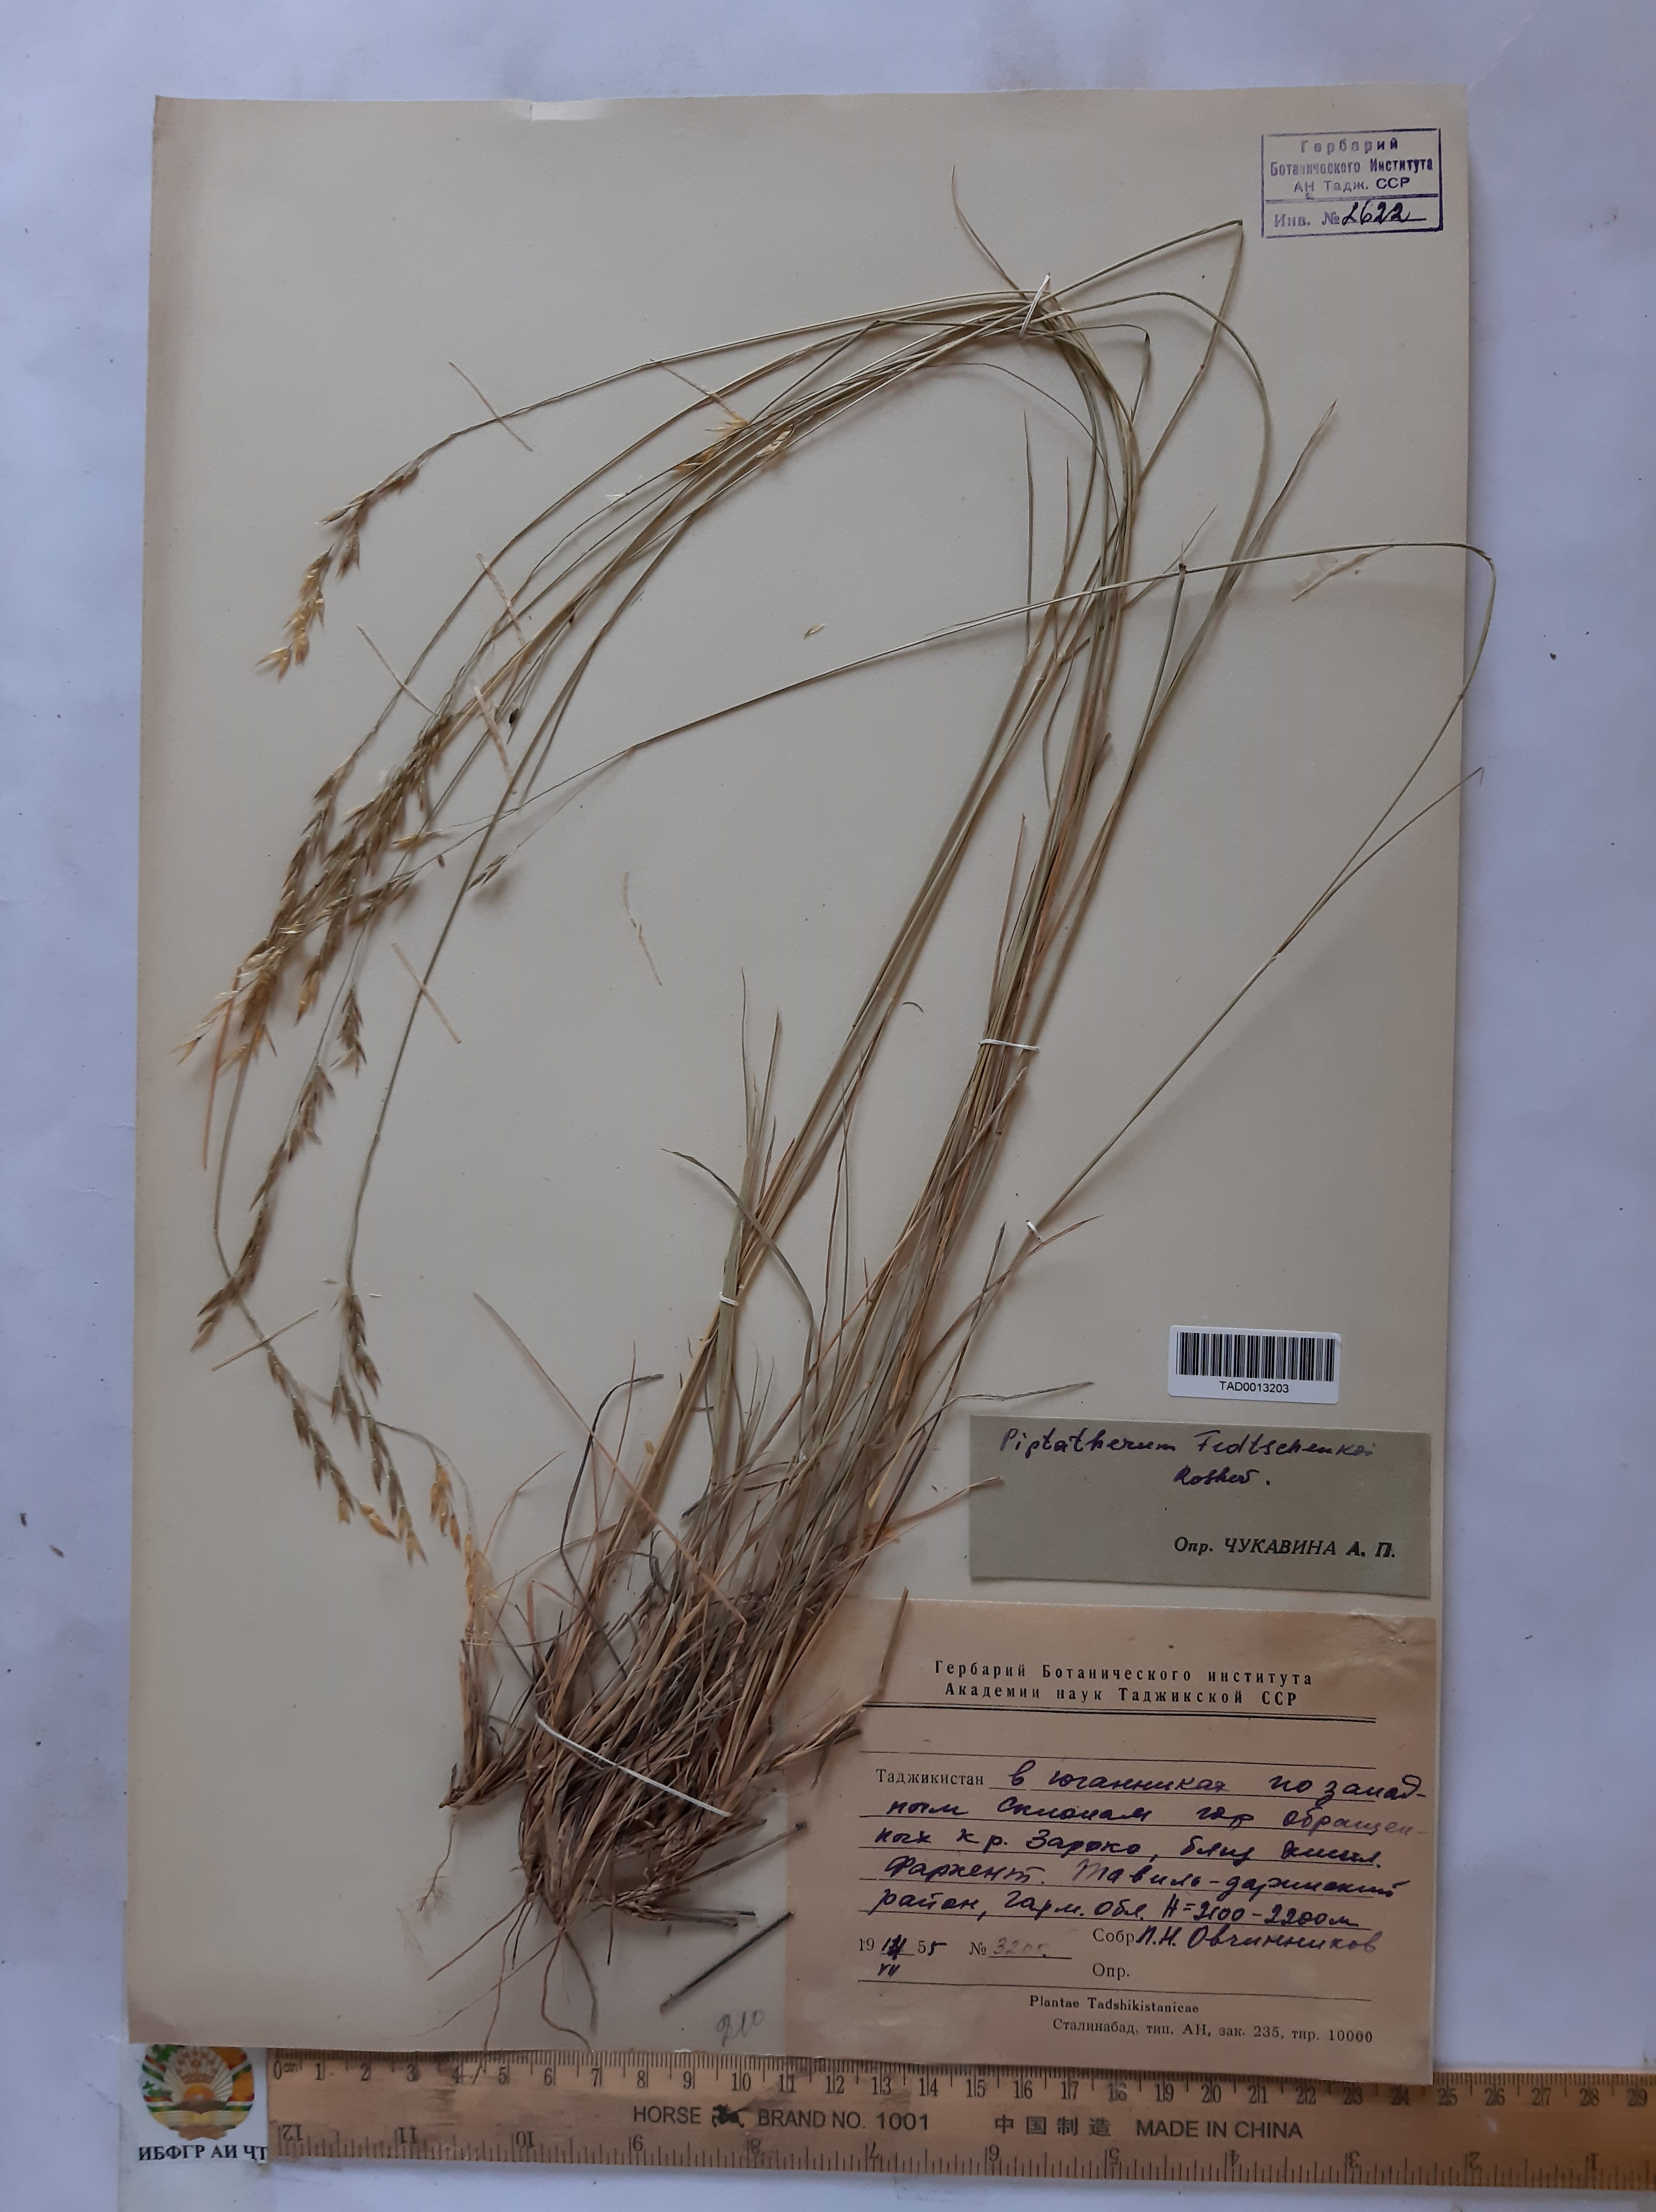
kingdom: Plantae
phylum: Tracheophyta
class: Liliopsida
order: Poales
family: Poaceae
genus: Piptatherum
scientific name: Piptatherum sogdianum
